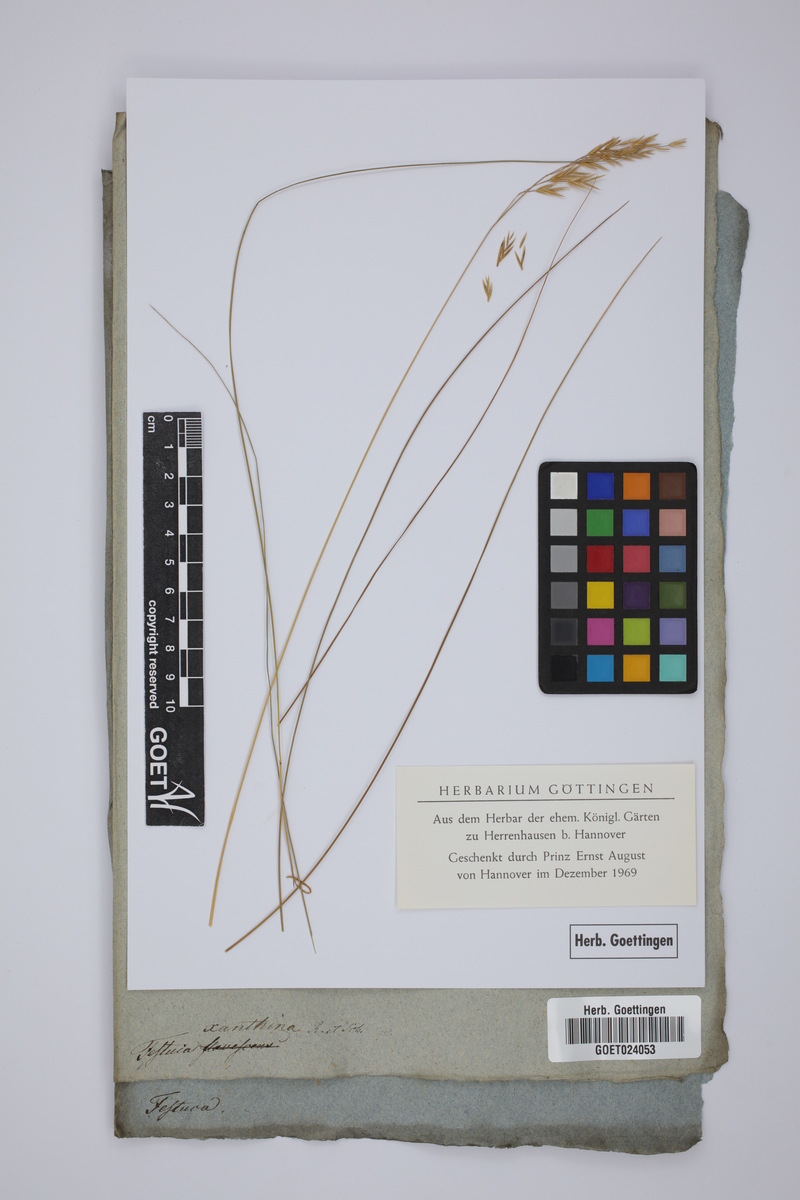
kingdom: Plantae
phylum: Tracheophyta
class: Liliopsida
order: Poales
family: Poaceae
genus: Festuca
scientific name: Festuca xanthina
